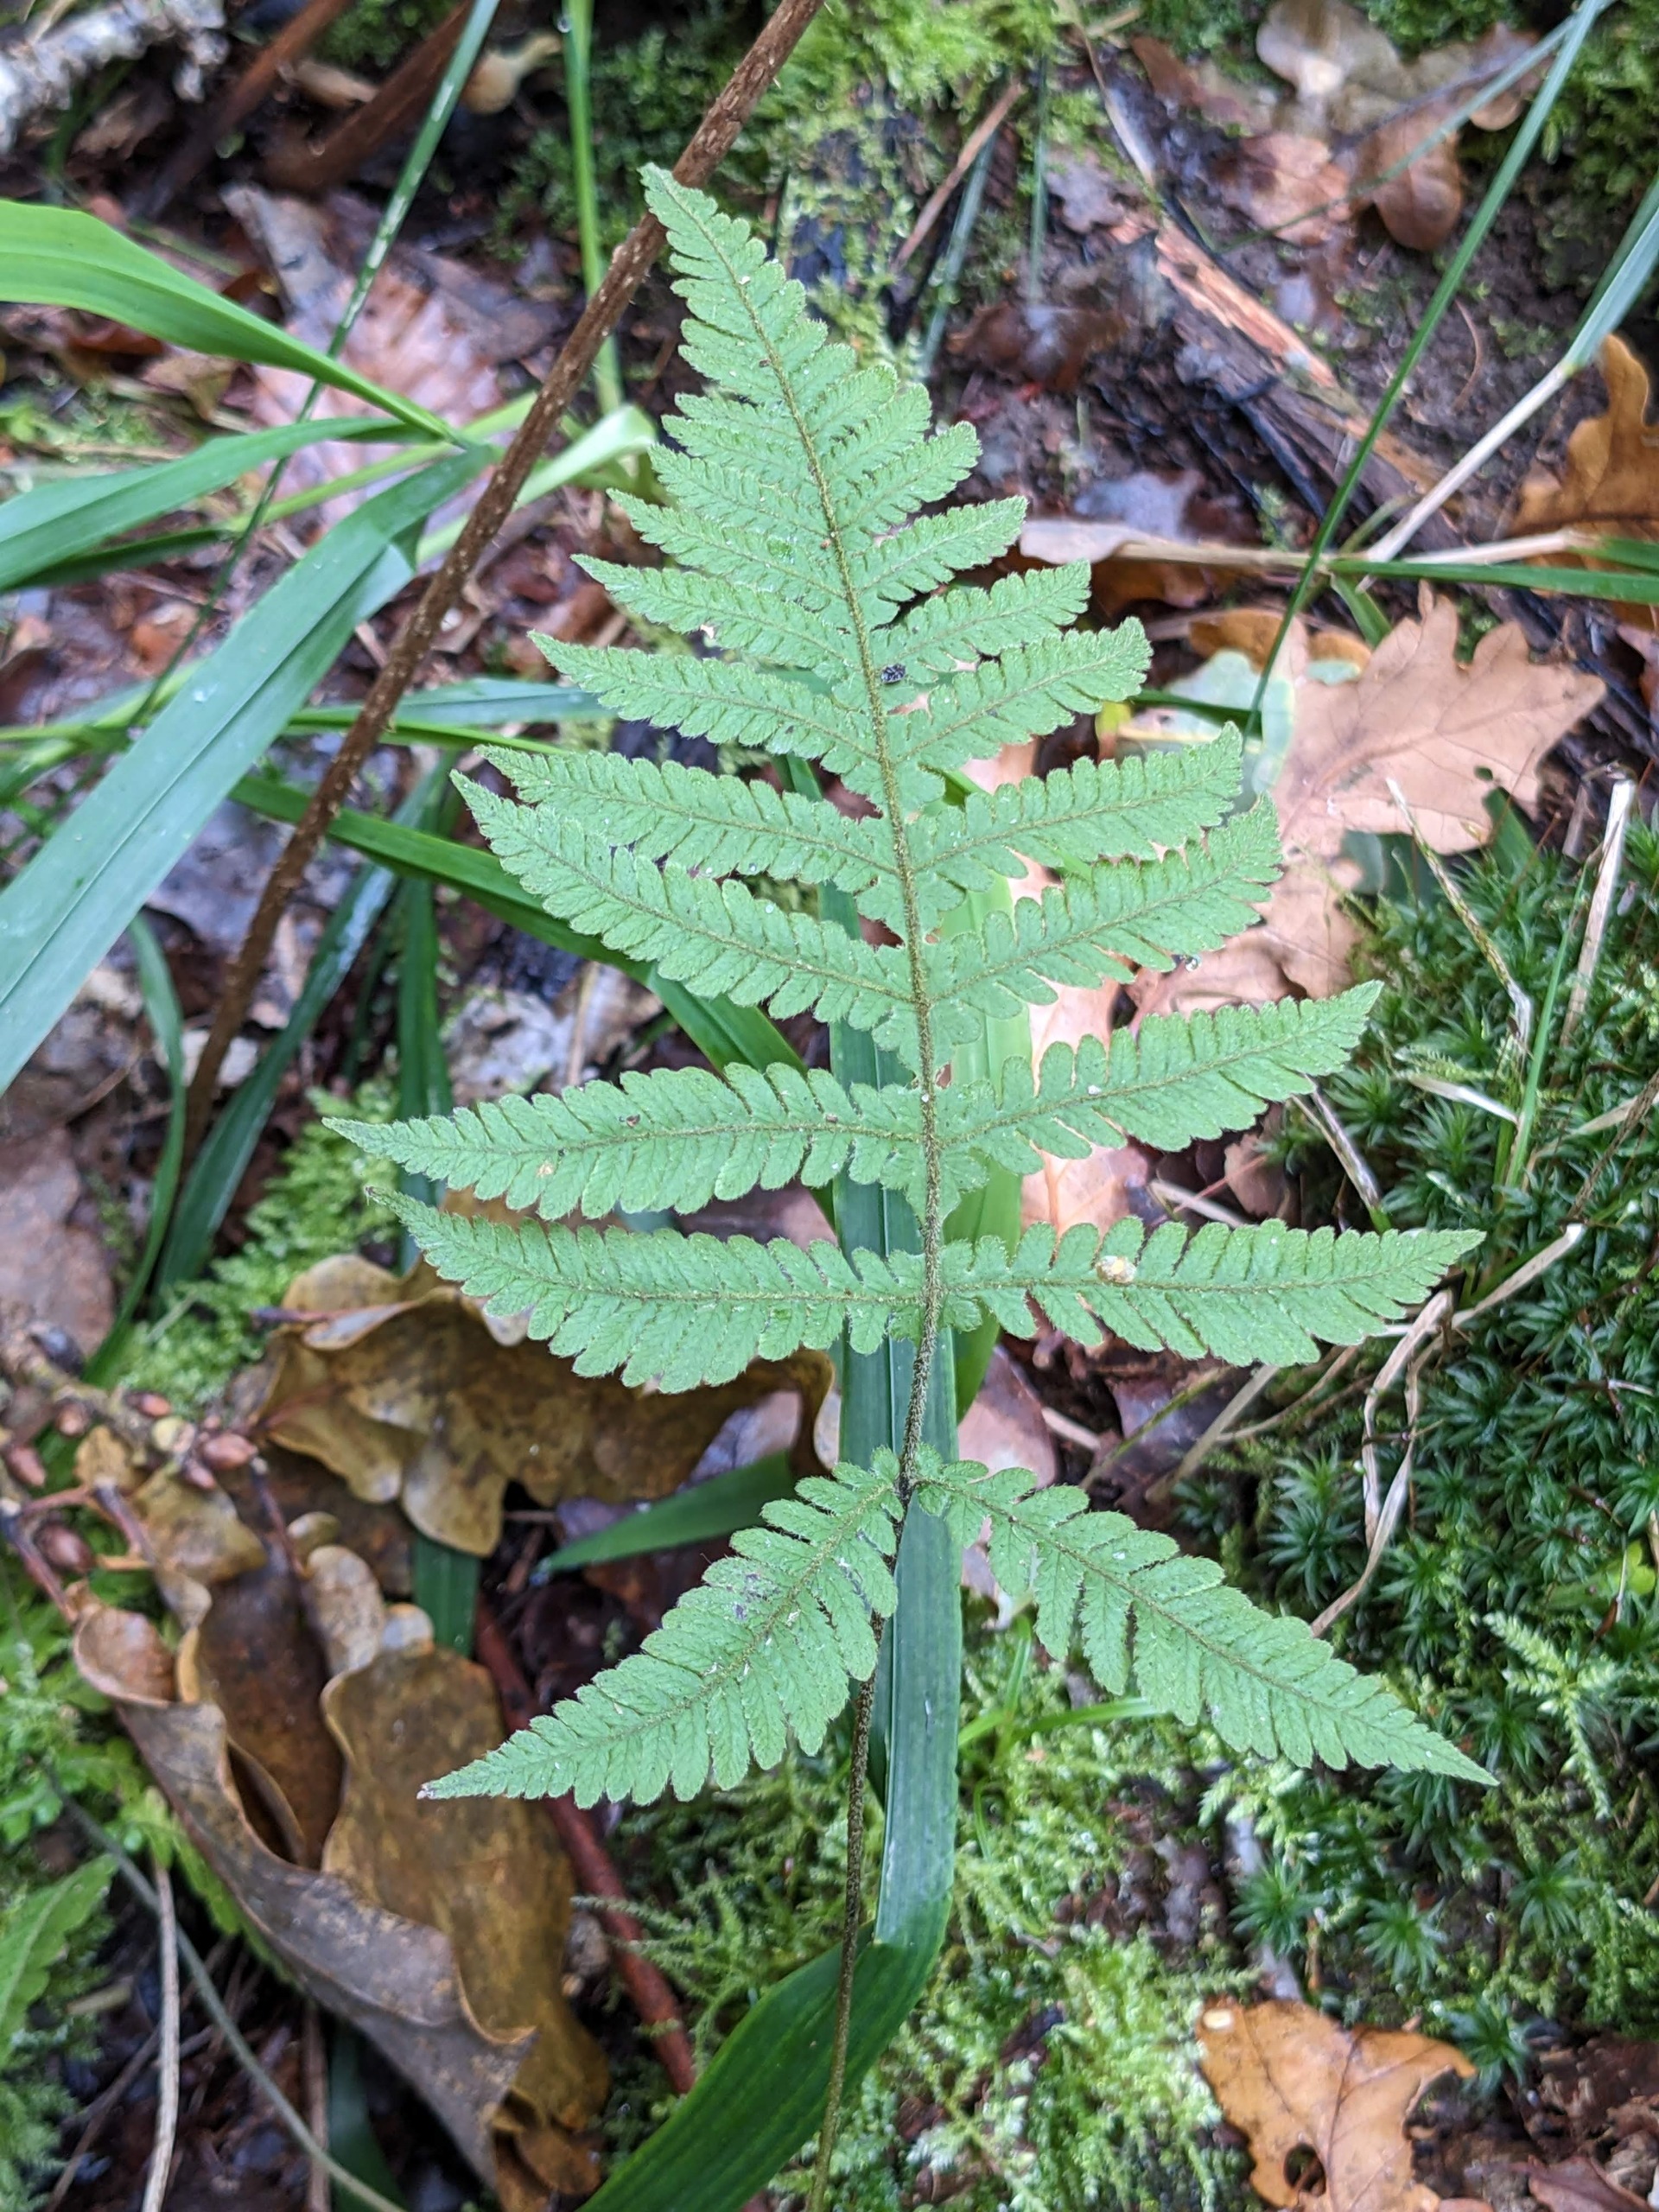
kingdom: Plantae
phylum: Tracheophyta
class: Polypodiopsida
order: Polypodiales
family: Thelypteridaceae
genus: Phegopteris
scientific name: Phegopteris connectilis
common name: Dunet egebregne
